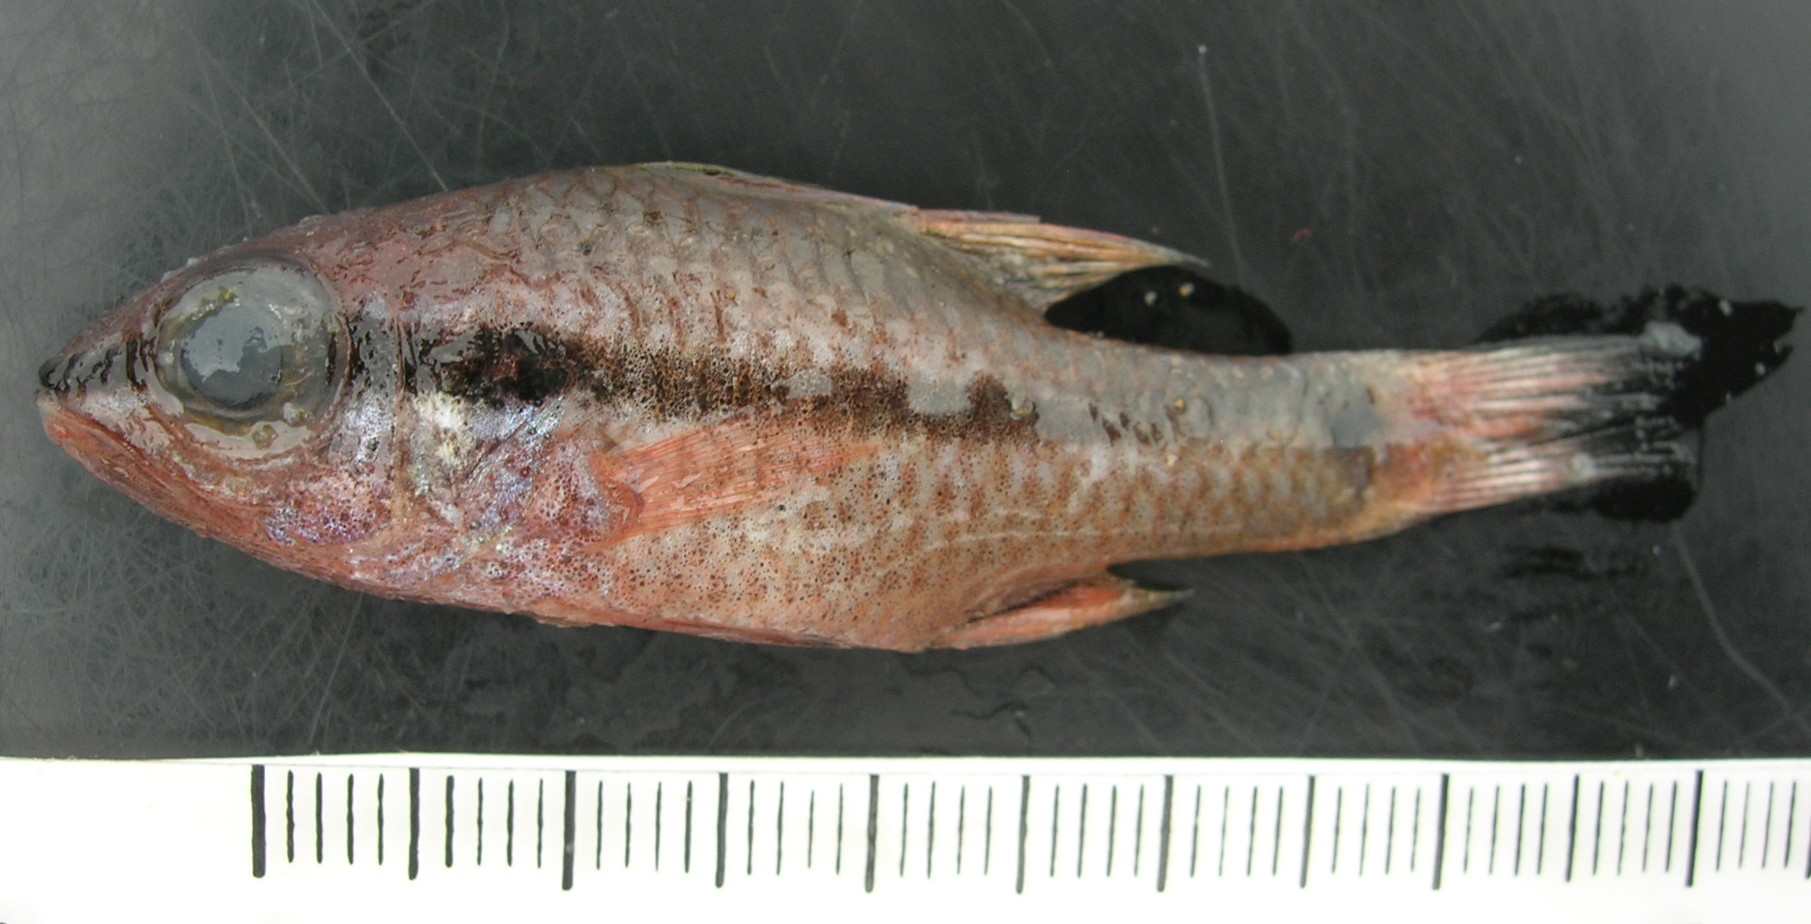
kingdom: Animalia
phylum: Chordata
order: Perciformes
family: Apogonidae
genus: Pristiapogon
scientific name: Pristiapogon kallopterus
